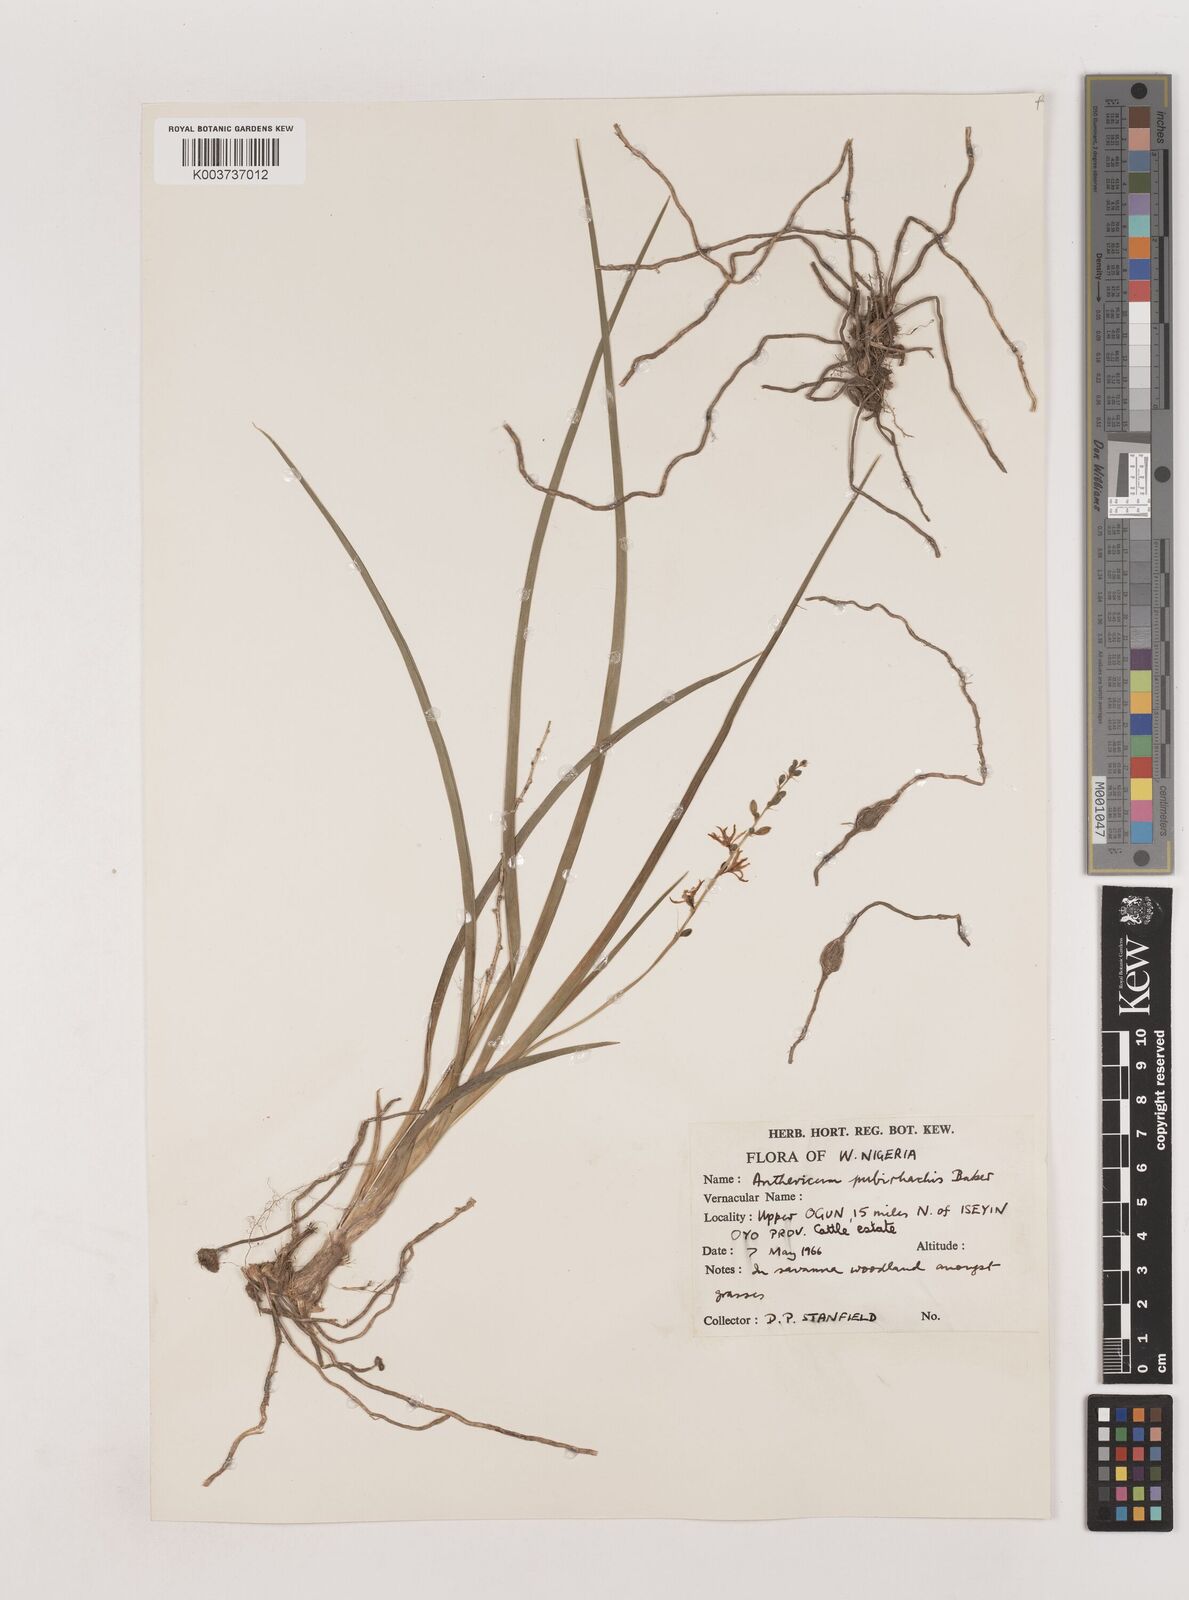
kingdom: Plantae
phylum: Tracheophyta
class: Liliopsida
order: Asparagales
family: Asparagaceae
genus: Chlorophytum
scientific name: Chlorophytum affine
